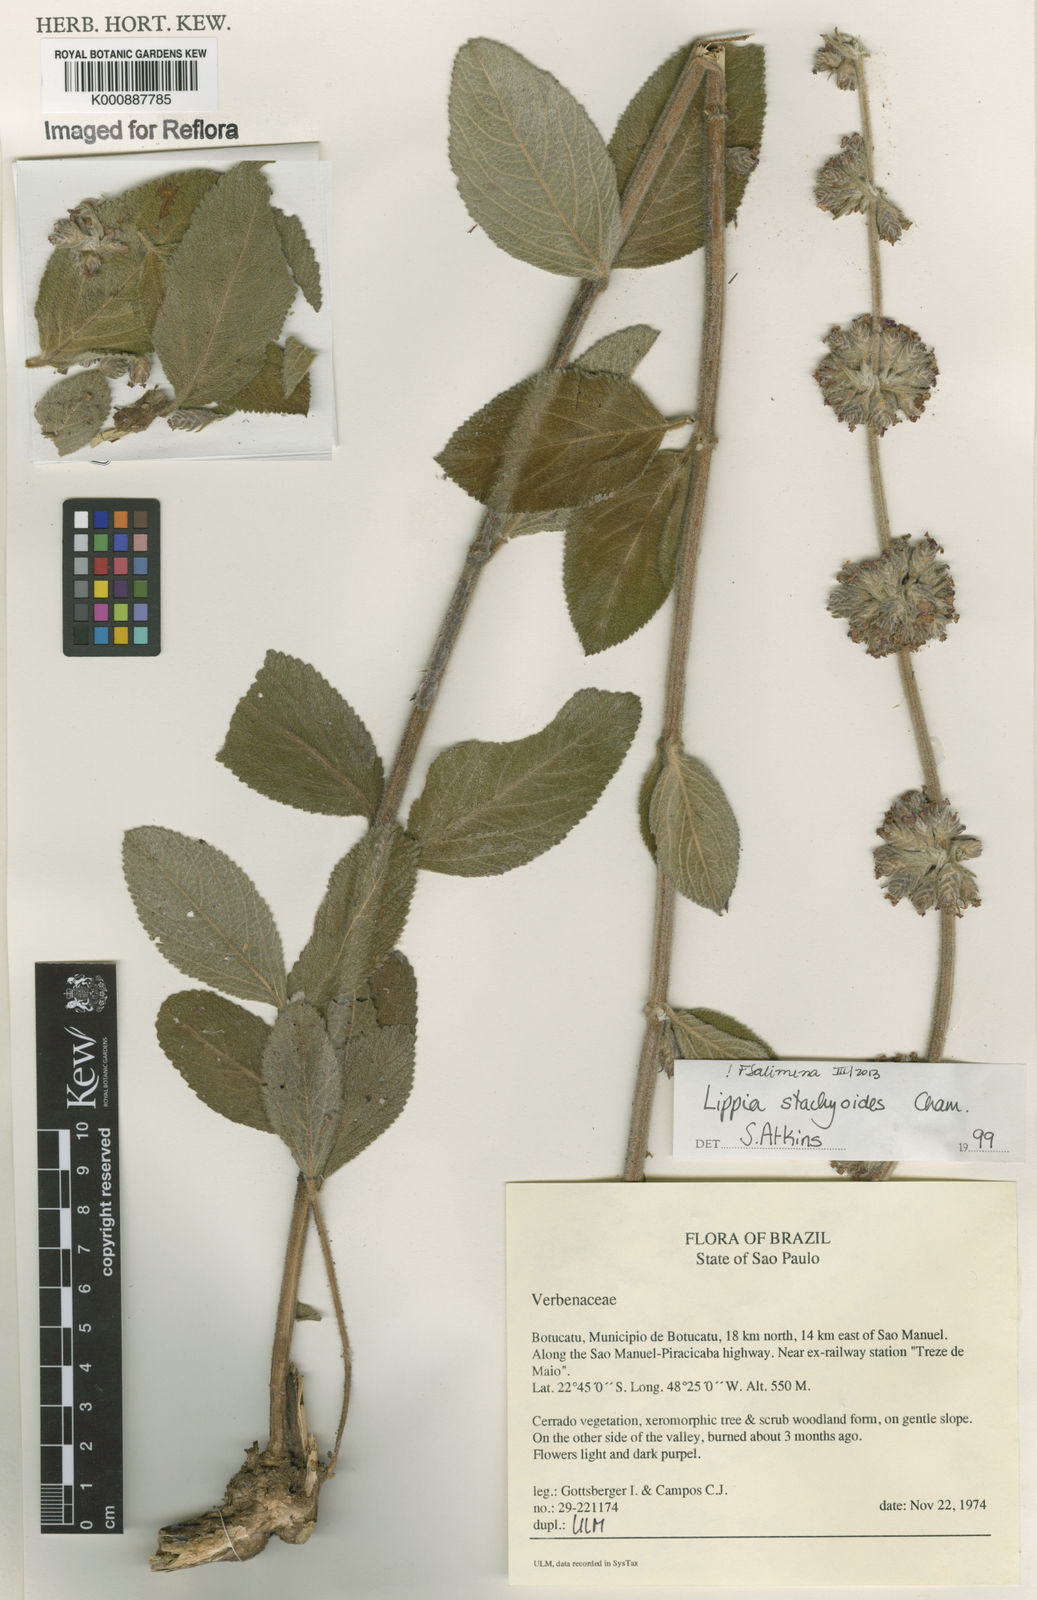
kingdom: Plantae
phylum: Tracheophyta
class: Magnoliopsida
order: Lamiales
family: Verbenaceae
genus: Lippia
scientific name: Lippia stachyoides
